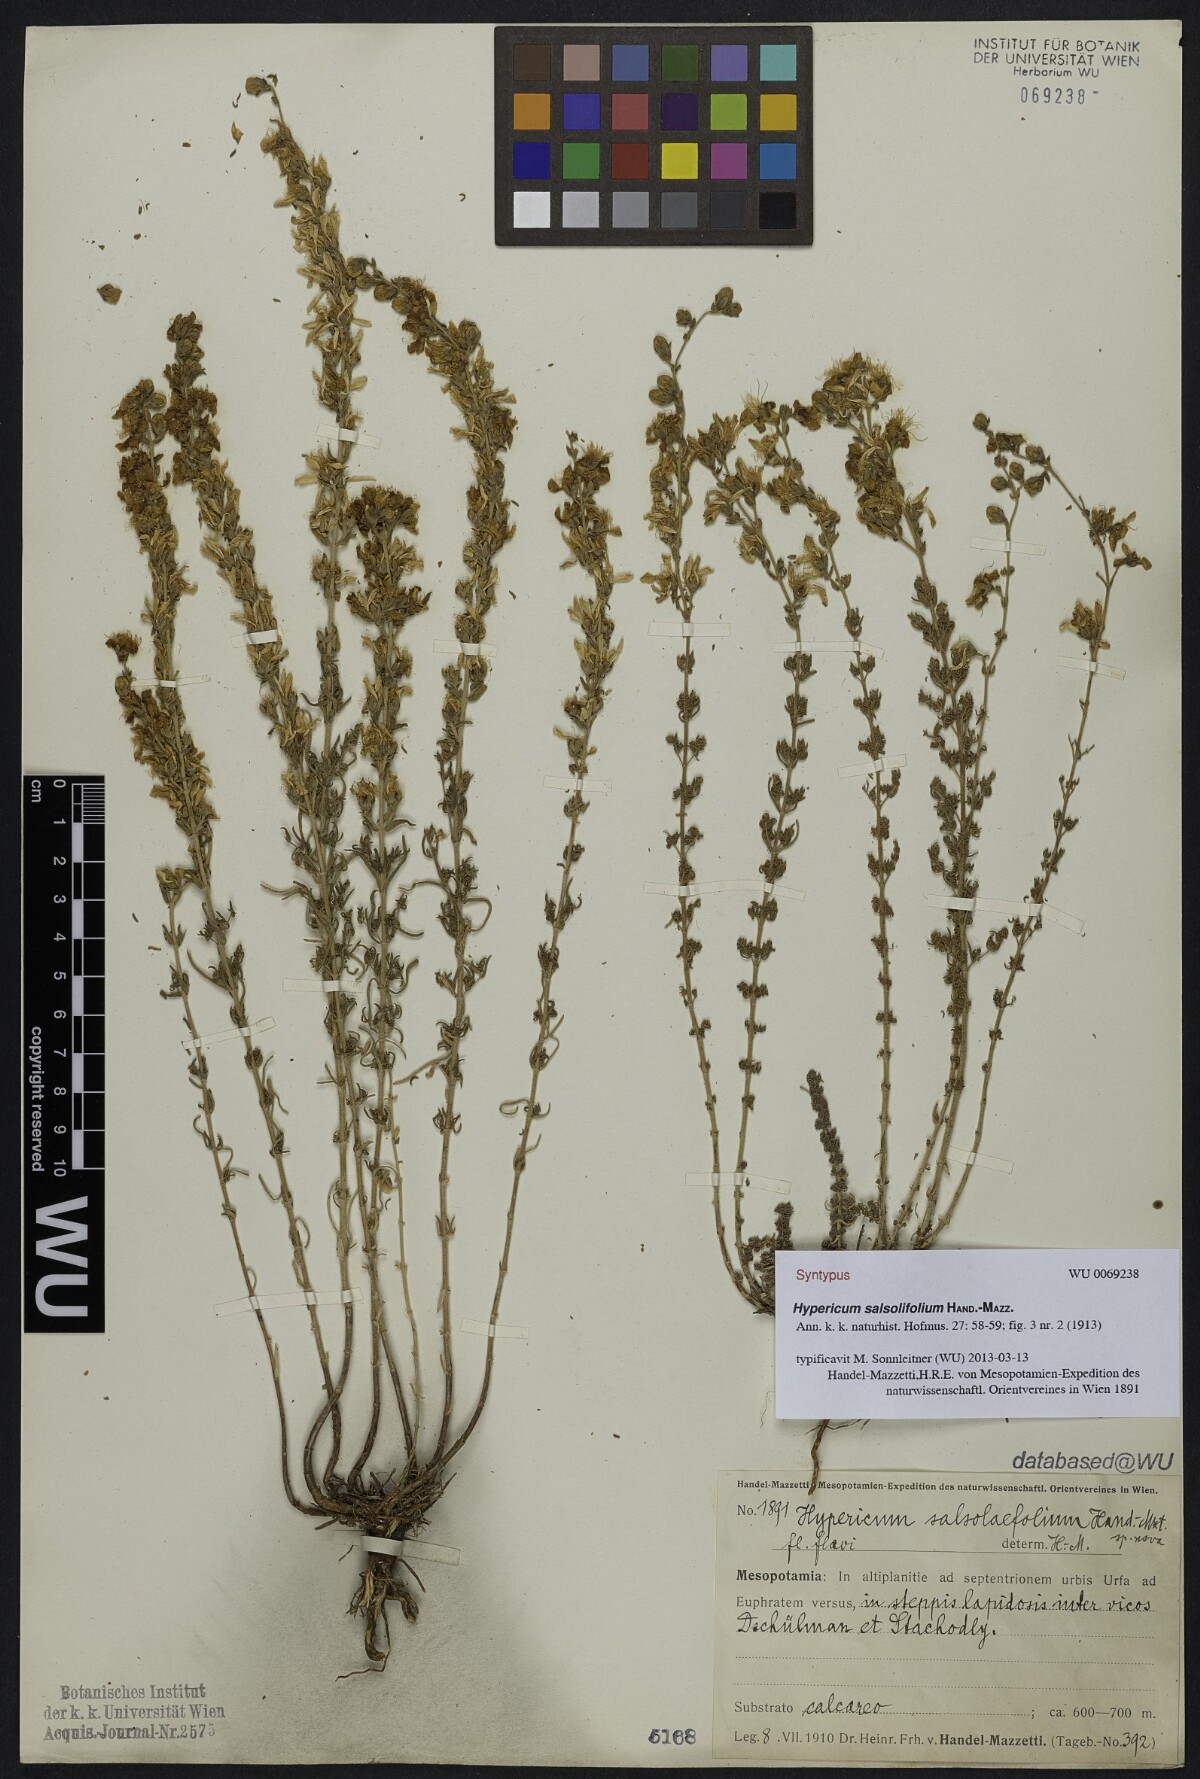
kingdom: Plantae
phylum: Tracheophyta
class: Magnoliopsida
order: Malpighiales
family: Hypericaceae
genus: Hypericum
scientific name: Hypericum salsolifolium
